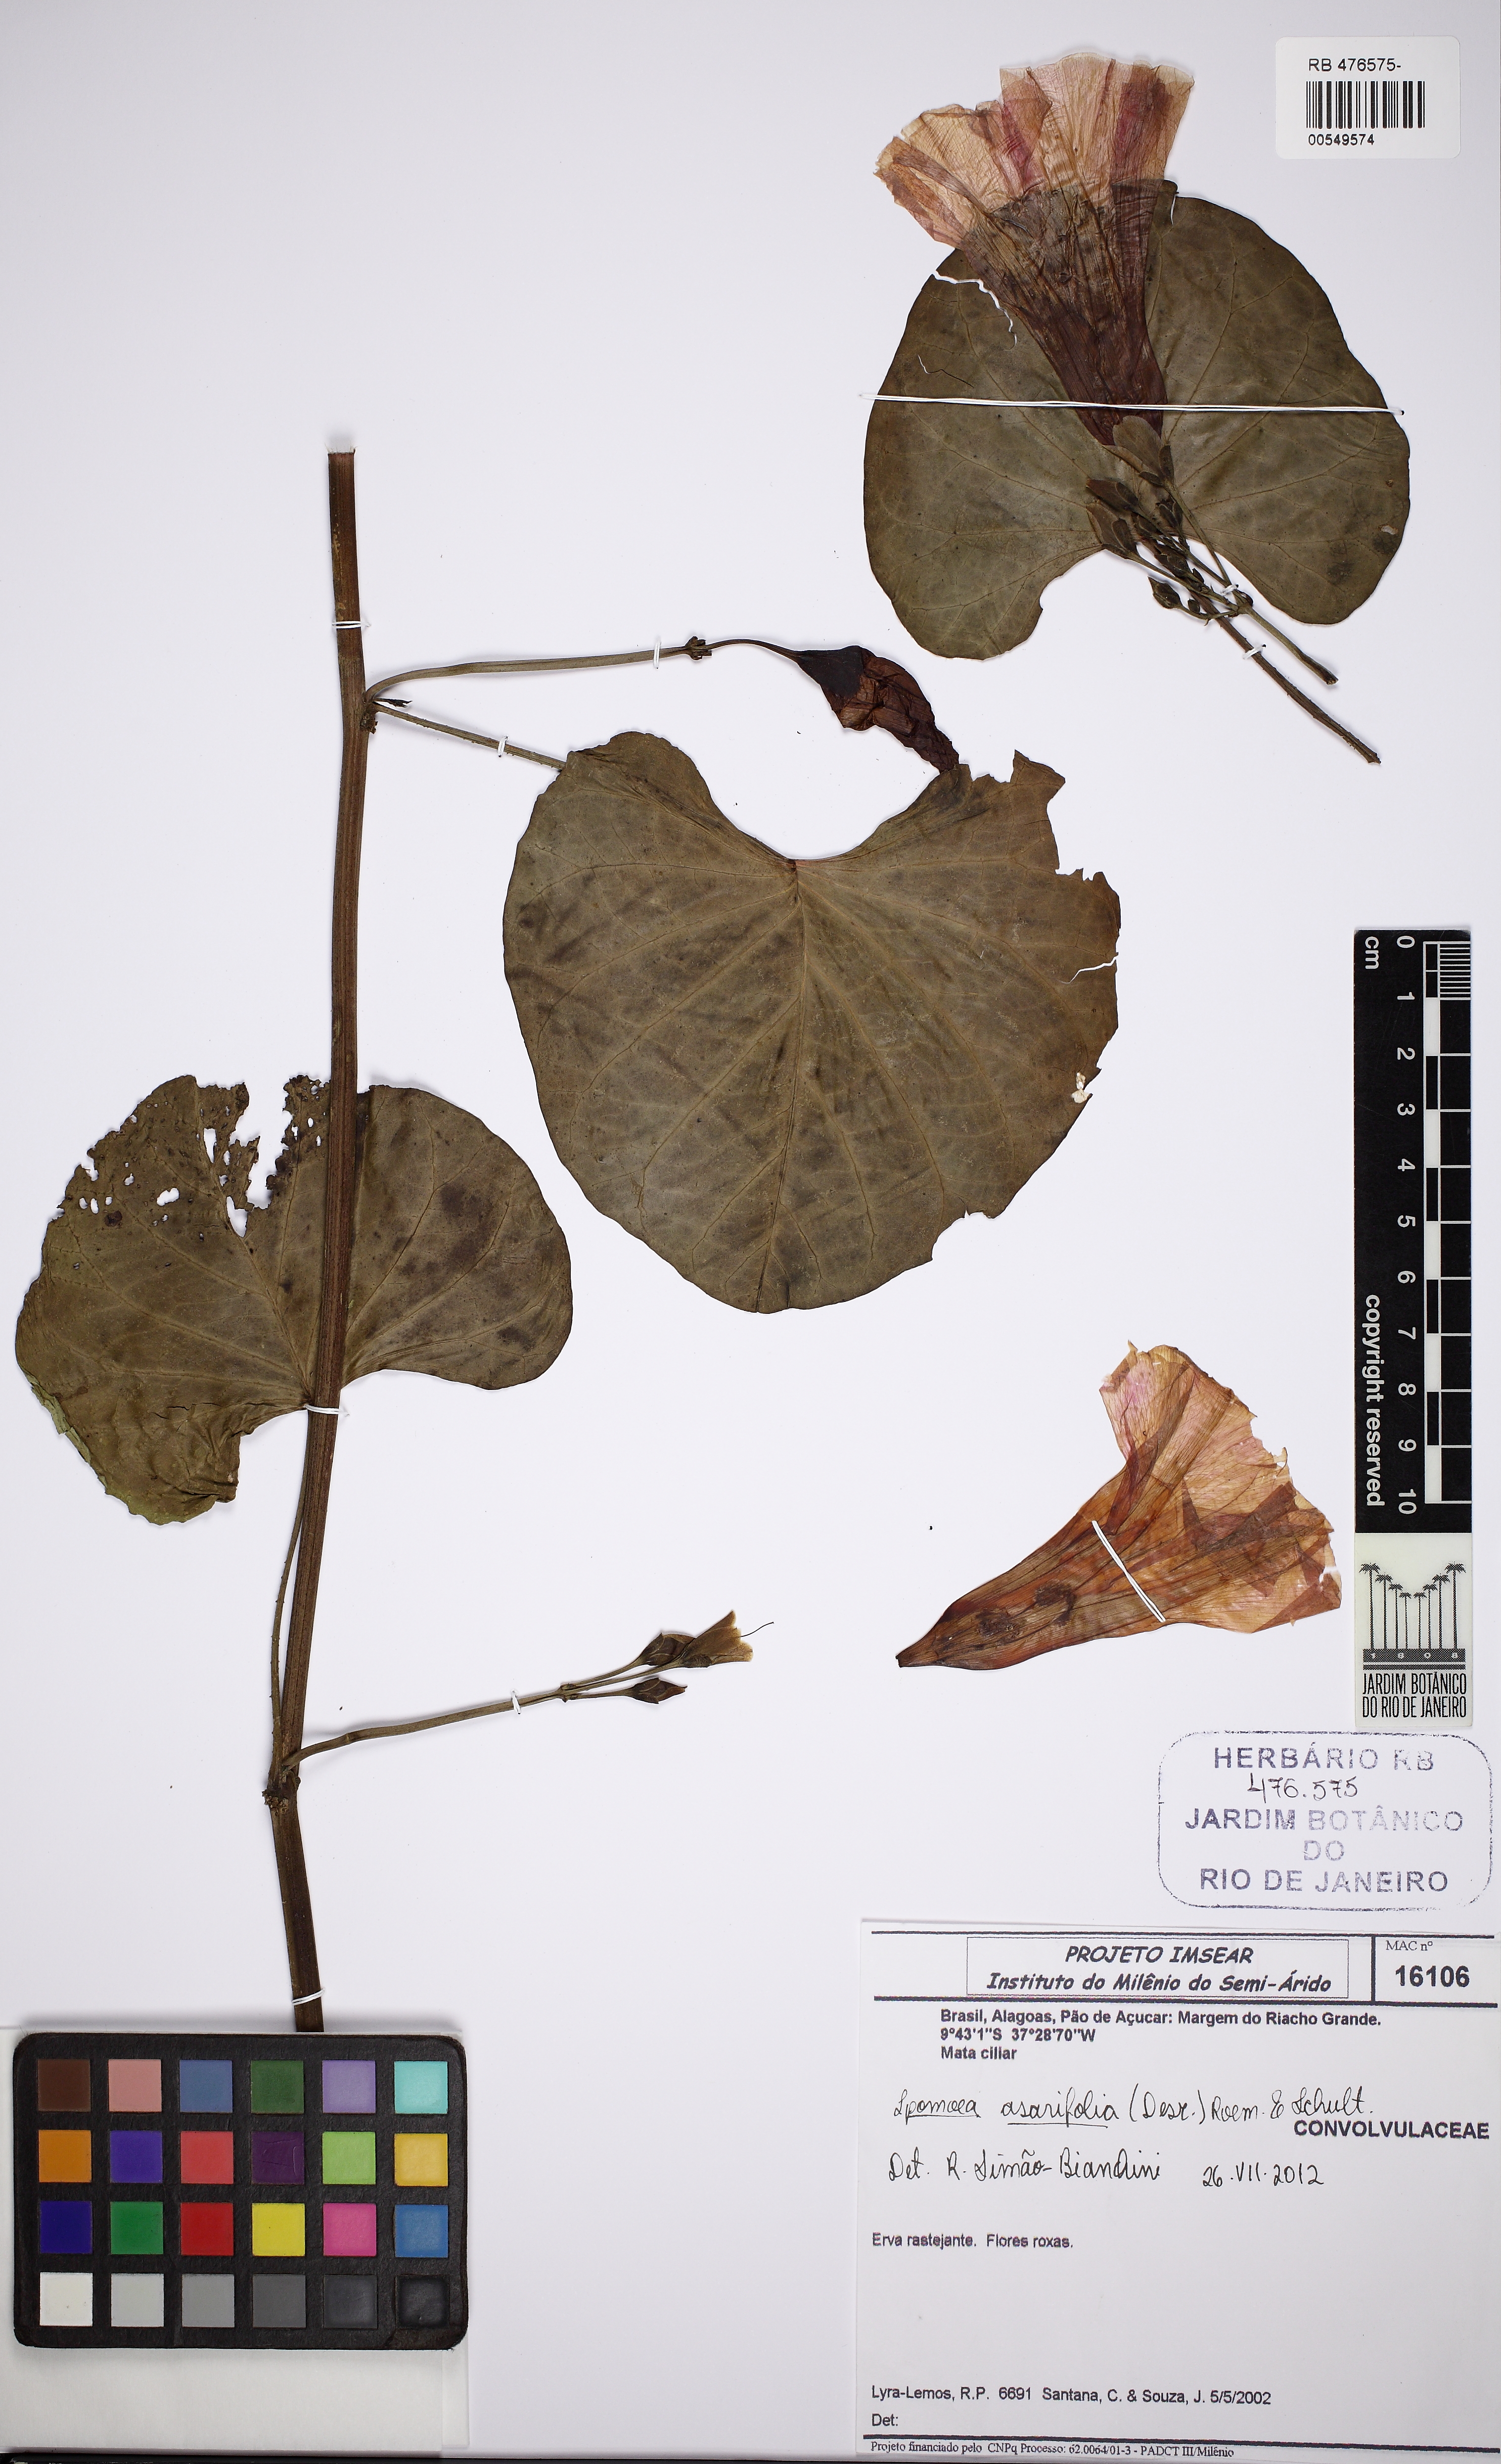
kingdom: Plantae
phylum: Tracheophyta
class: Magnoliopsida
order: Solanales
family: Convolvulaceae
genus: Ipomoea
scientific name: Ipomoea asarifolia
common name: Ginger-leaf morning-glory
